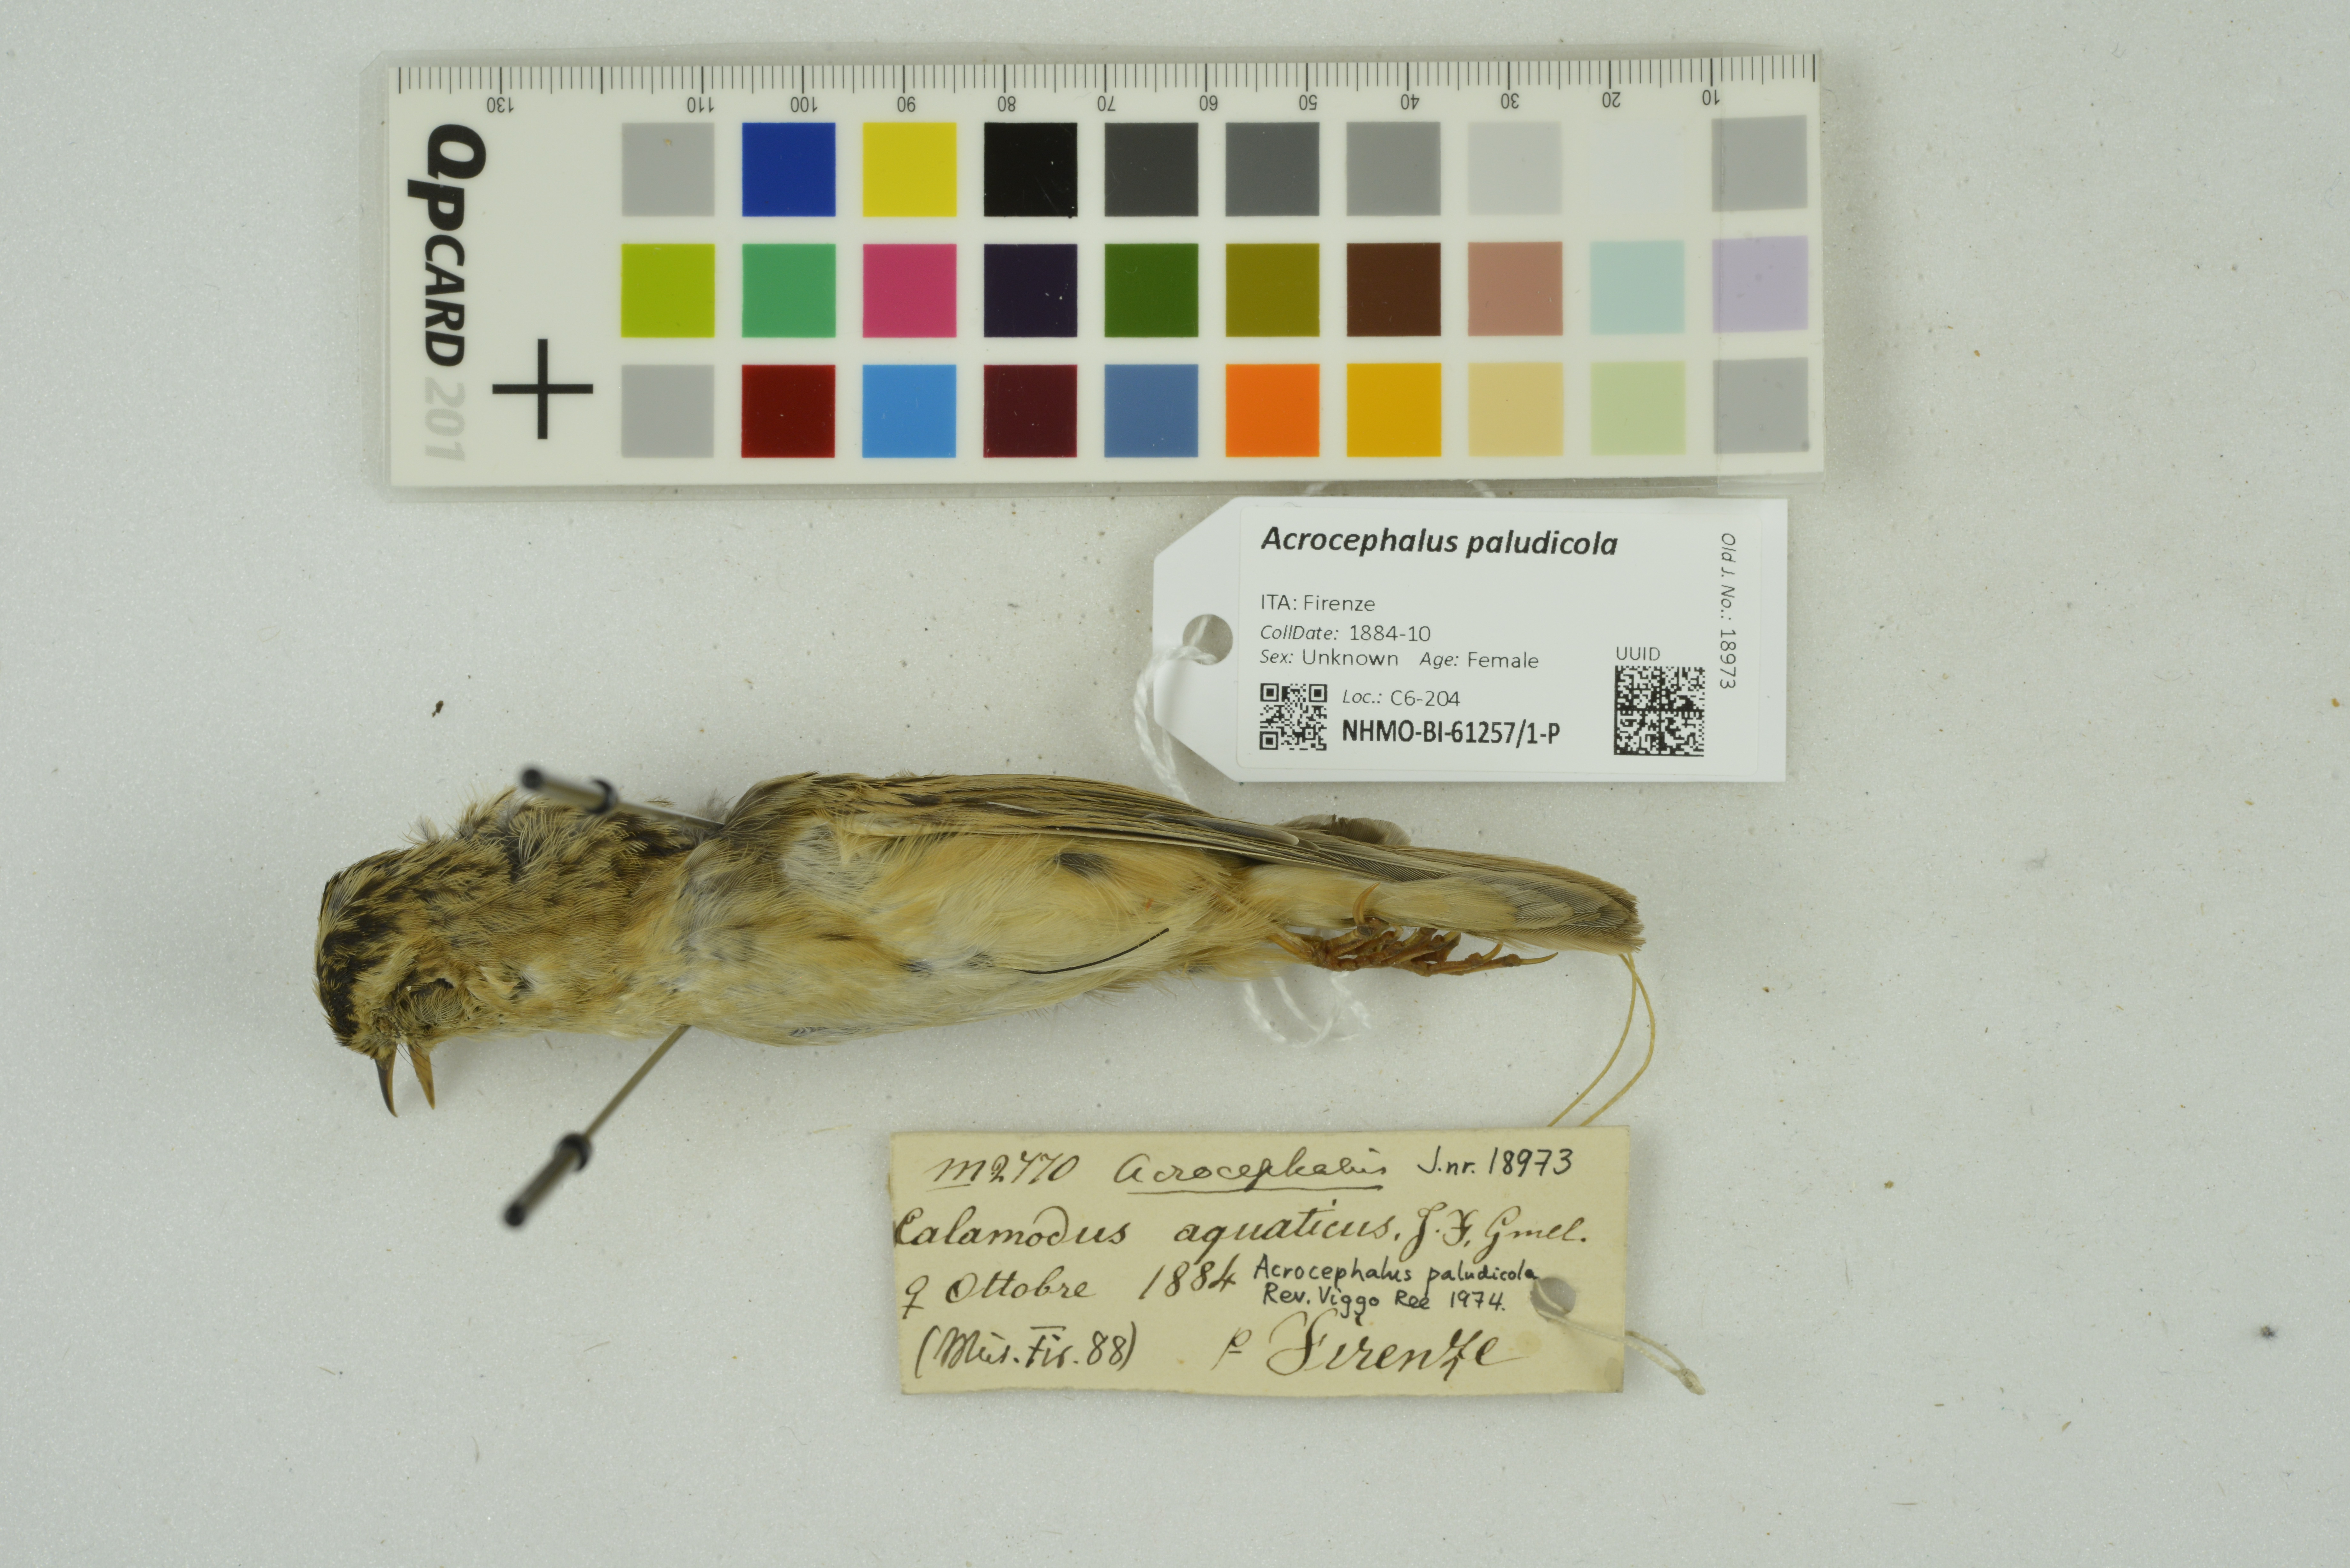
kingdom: Animalia
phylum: Chordata
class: Aves
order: Passeriformes
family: Acrocephalidae
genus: Acrocephalus
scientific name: Acrocephalus paludicola
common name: Aquatic warbler
